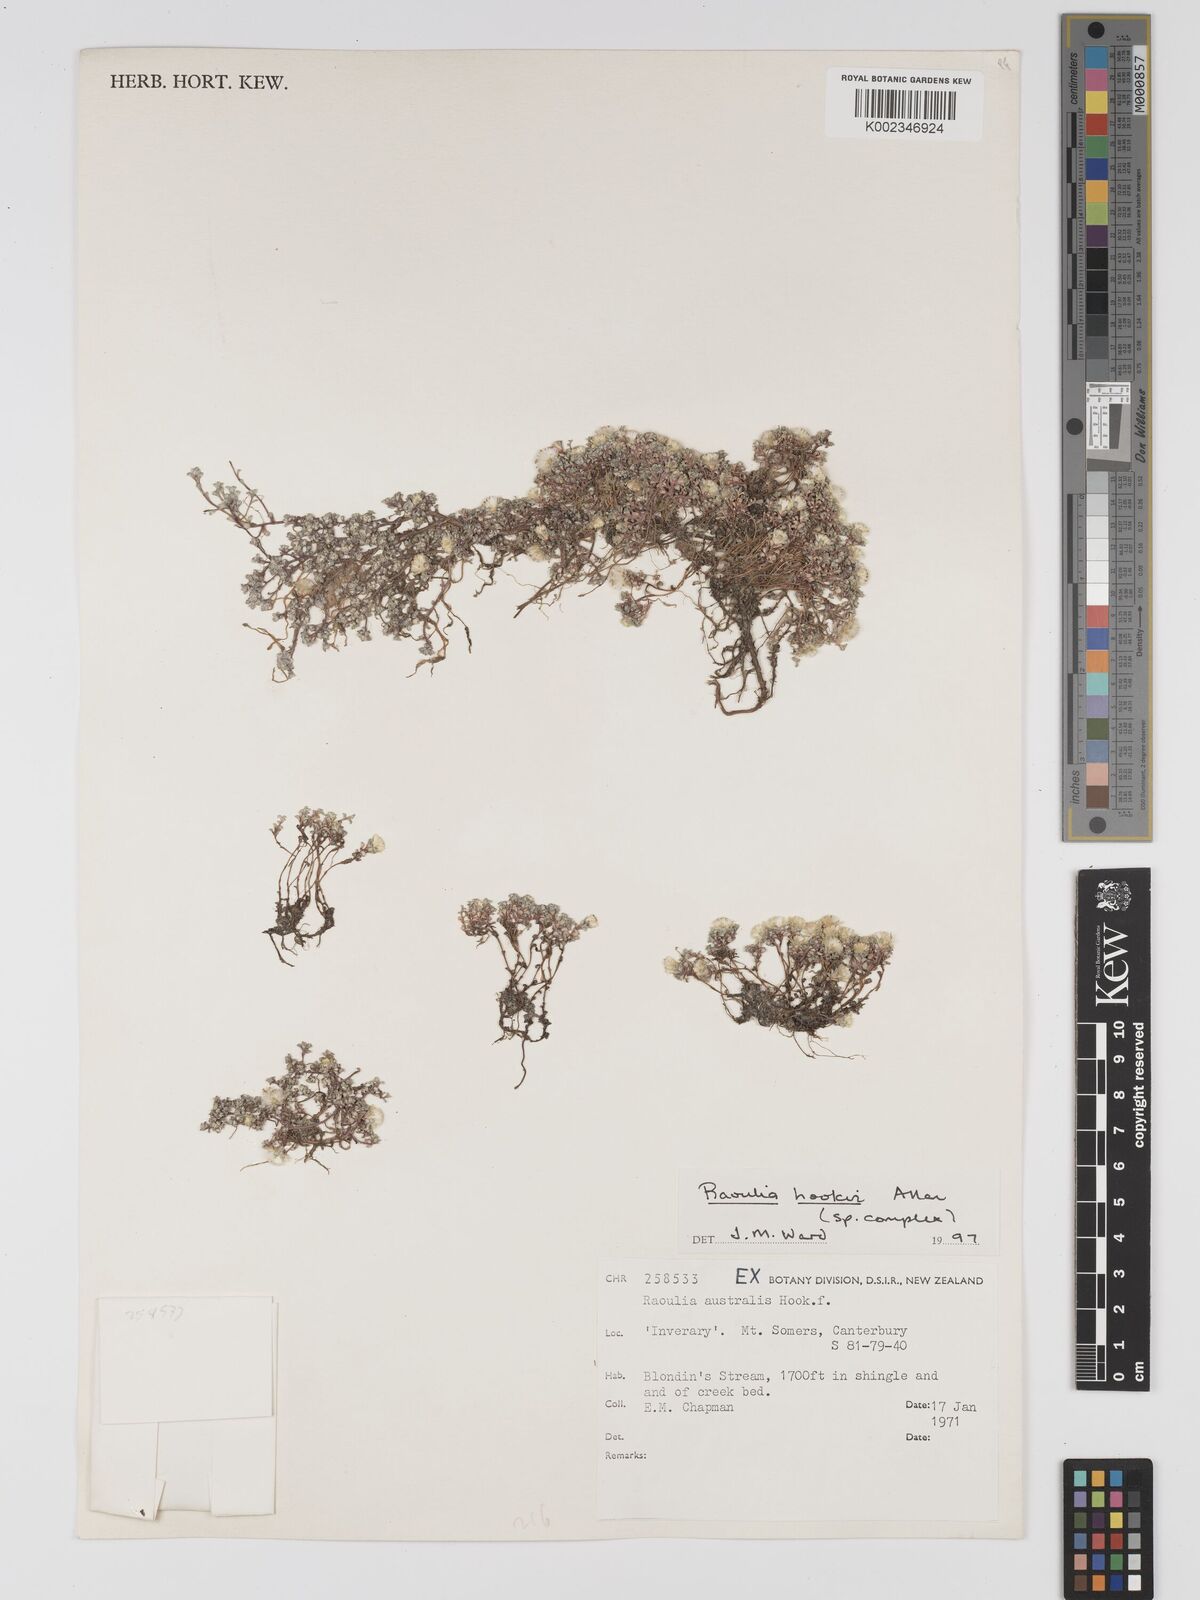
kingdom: Plantae
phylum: Tracheophyta
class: Magnoliopsida
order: Asterales
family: Asteraceae
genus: Raoulia
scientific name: Raoulia hookeri
